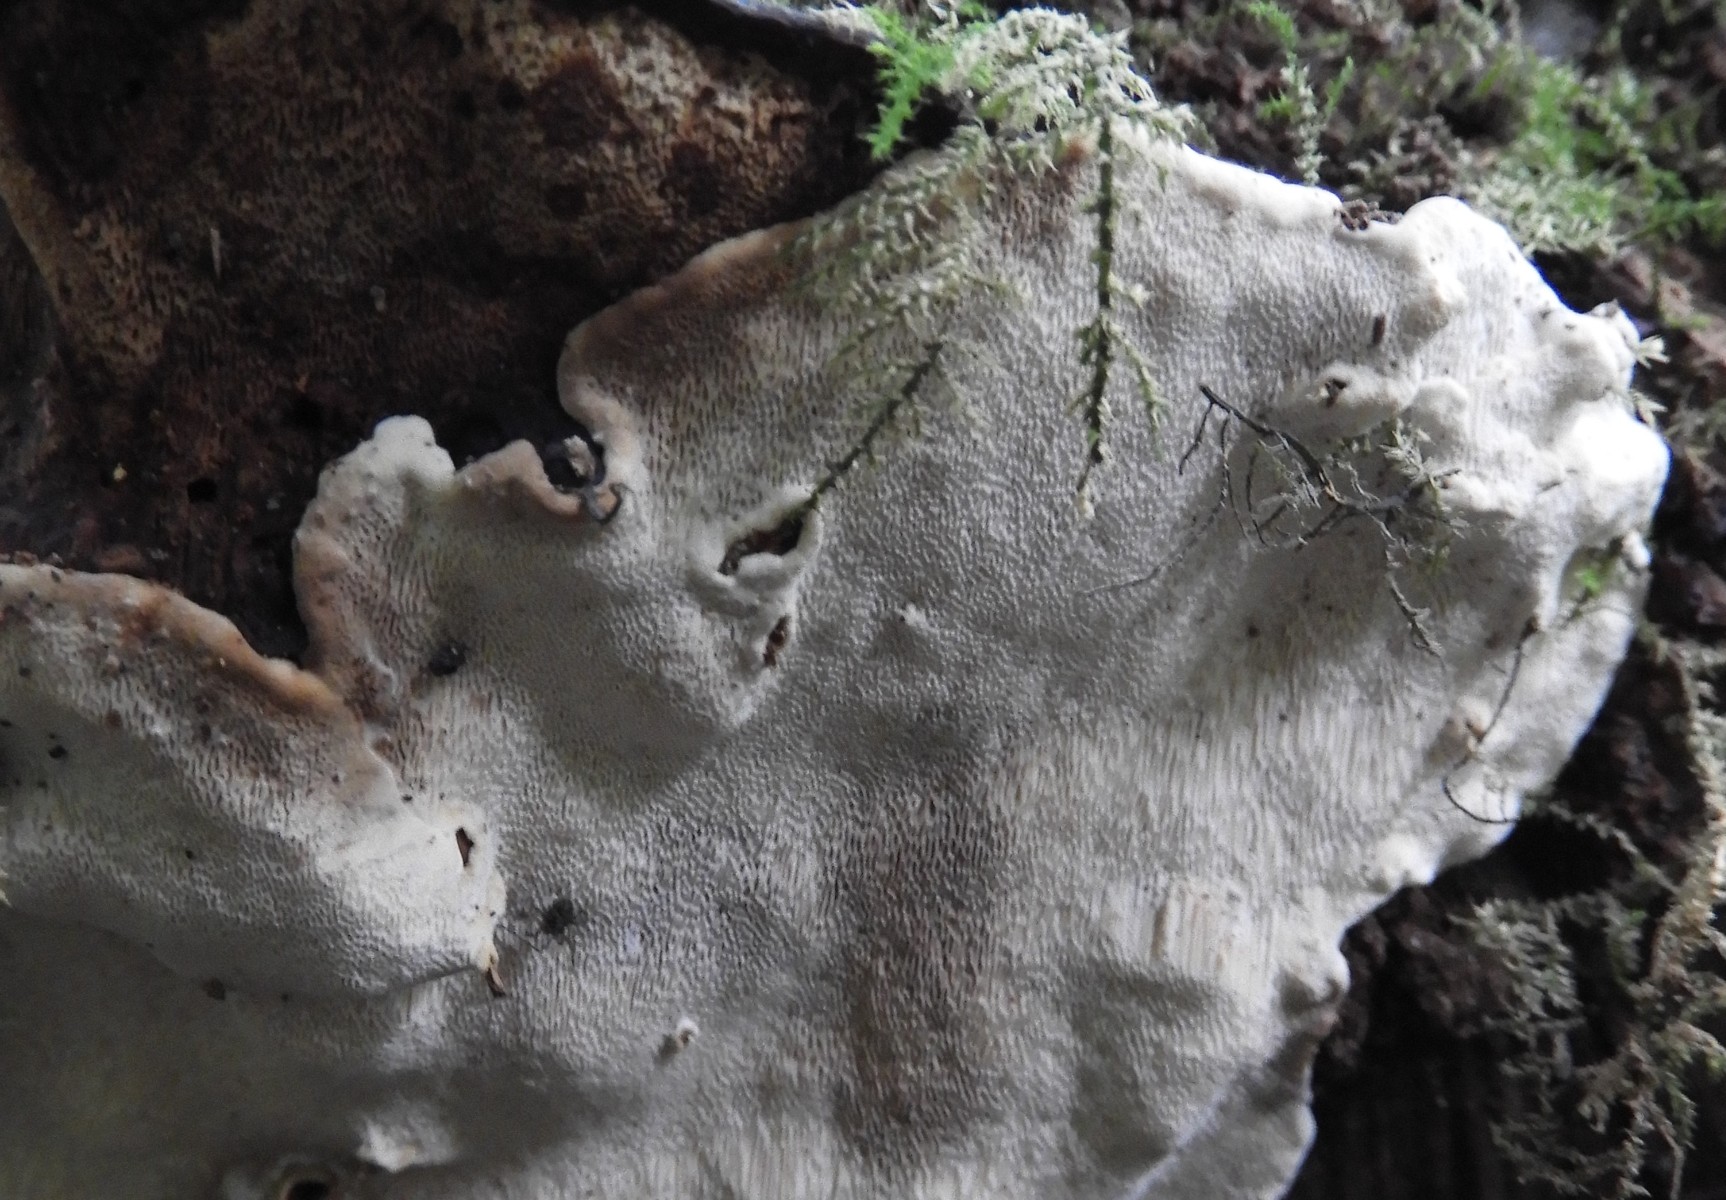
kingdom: Fungi
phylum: Basidiomycota
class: Agaricomycetes
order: Russulales
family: Bondarzewiaceae
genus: Heterobasidion
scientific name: Heterobasidion annosum
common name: almindelig rodfordærver
